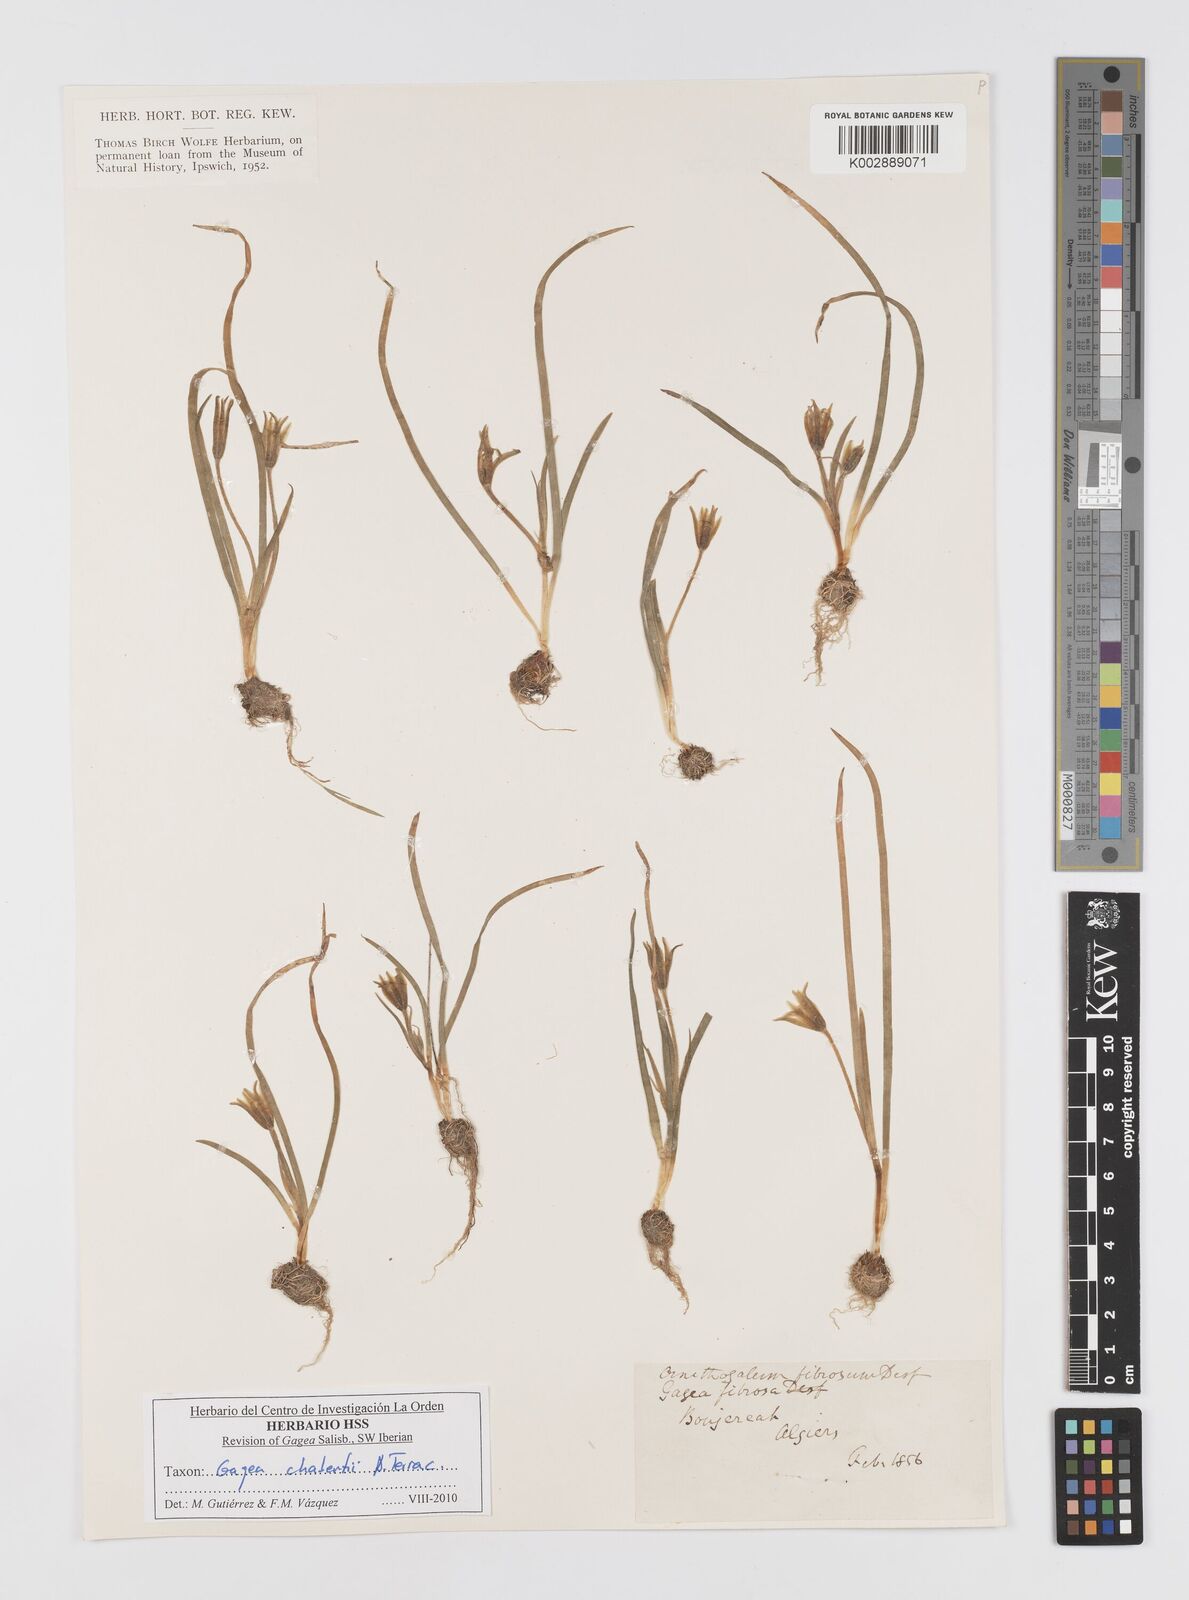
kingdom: Plantae
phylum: Tracheophyta
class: Liliopsida
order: Liliales
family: Liliaceae
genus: Gagea
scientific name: Gagea chabertii
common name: Chabert’s gagea
